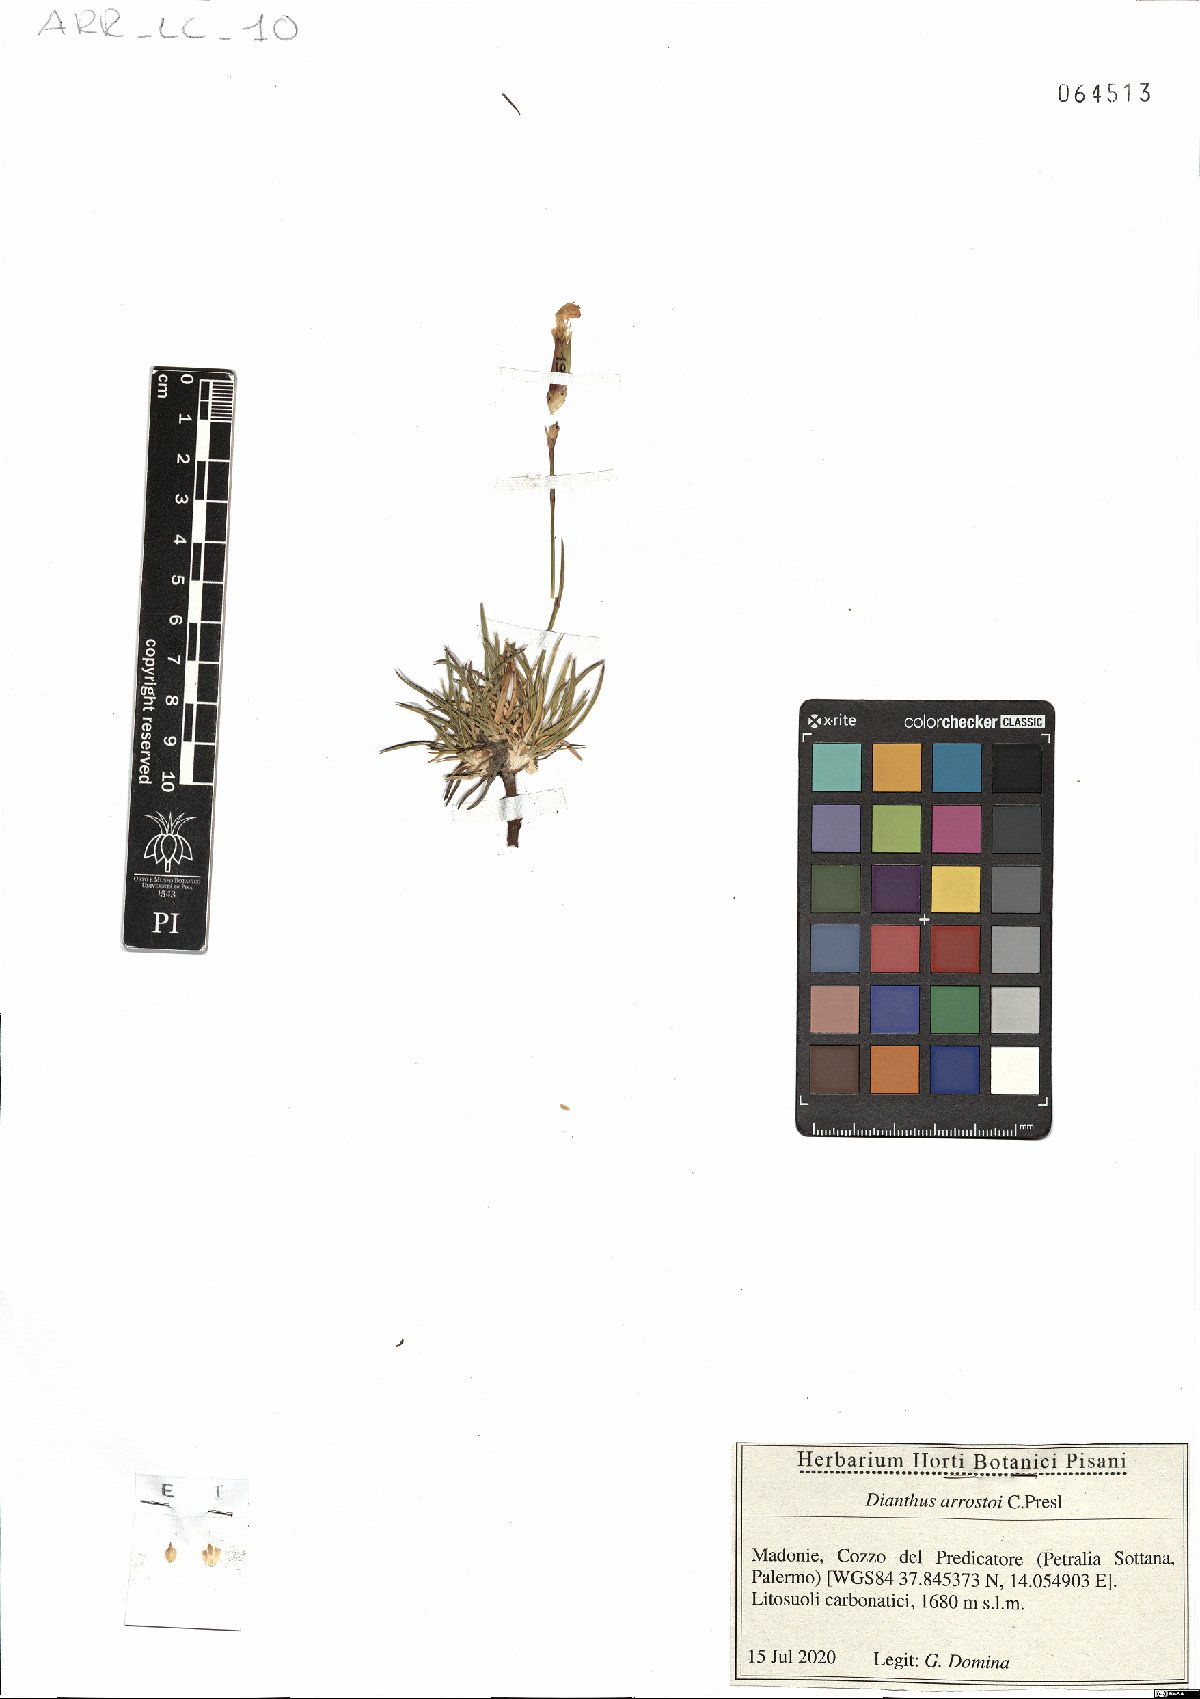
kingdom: Plantae
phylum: Tracheophyta
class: Magnoliopsida
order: Caryophyllales
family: Caryophyllaceae
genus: Dianthus
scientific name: Dianthus arrostoi
